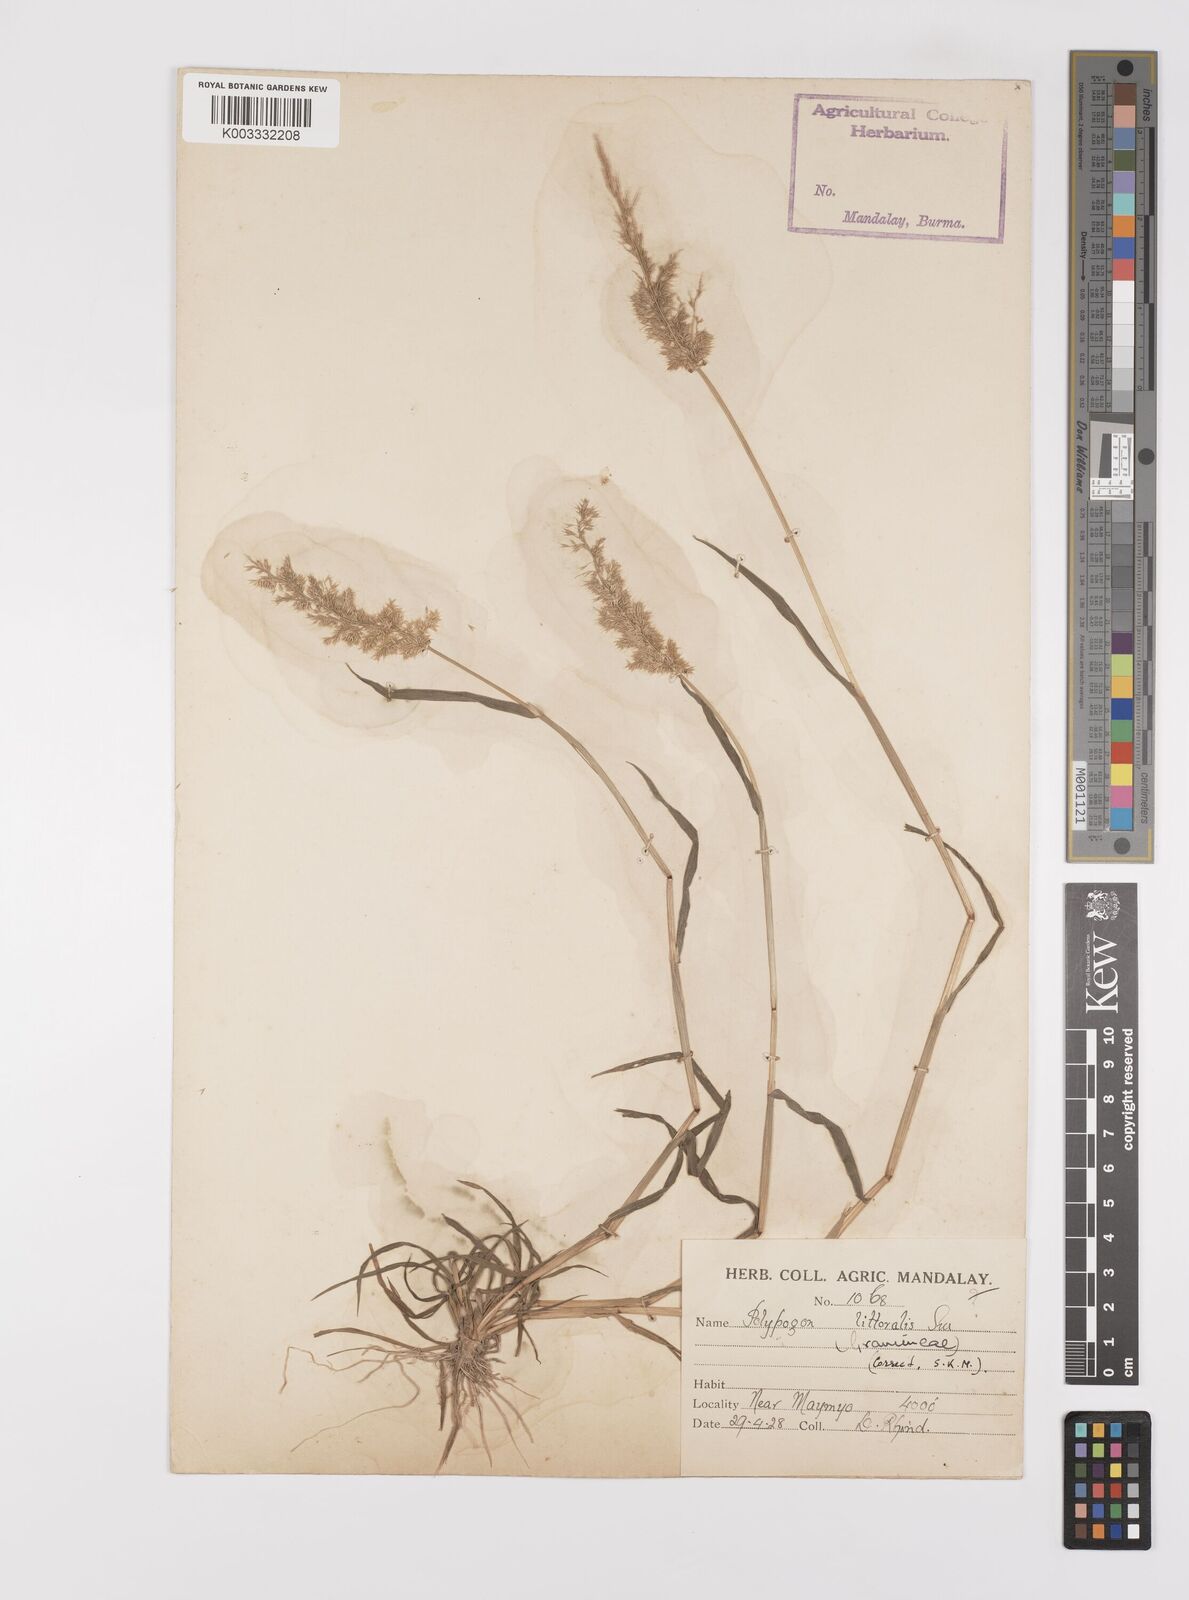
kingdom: Plantae
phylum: Tracheophyta
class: Liliopsida
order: Poales
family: Poaceae
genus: Polypogon
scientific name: Polypogon fugax
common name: Asia minor bluegrass
